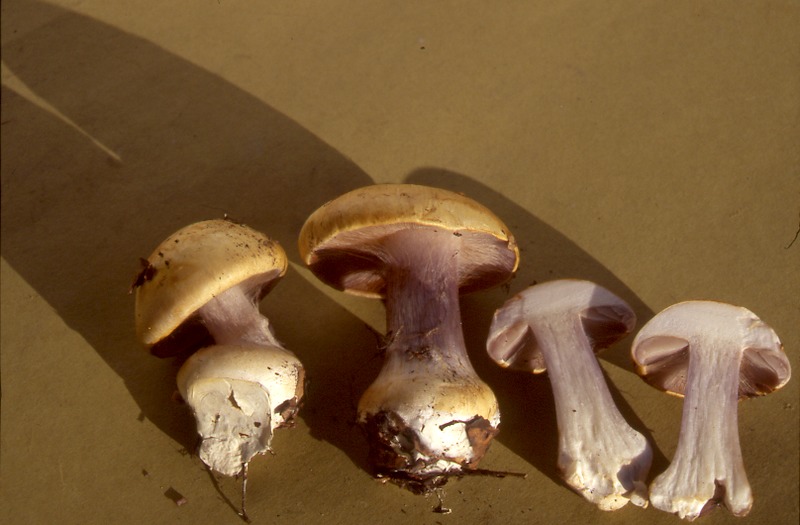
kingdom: Fungi
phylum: Basidiomycota
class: Agaricomycetes
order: Agaricales
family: Cortinariaceae
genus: Phlegmacium
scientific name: Phlegmacium amoenolens
